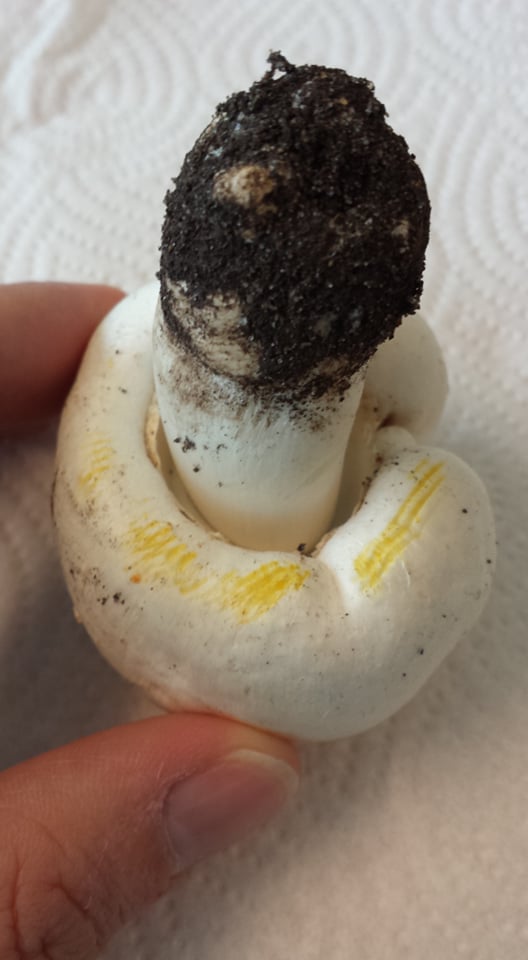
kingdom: Fungi
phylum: Basidiomycota
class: Agaricomycetes
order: Agaricales
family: Agaricaceae
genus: Agaricus
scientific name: Agaricus xanthodermus
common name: karbol-champignon
